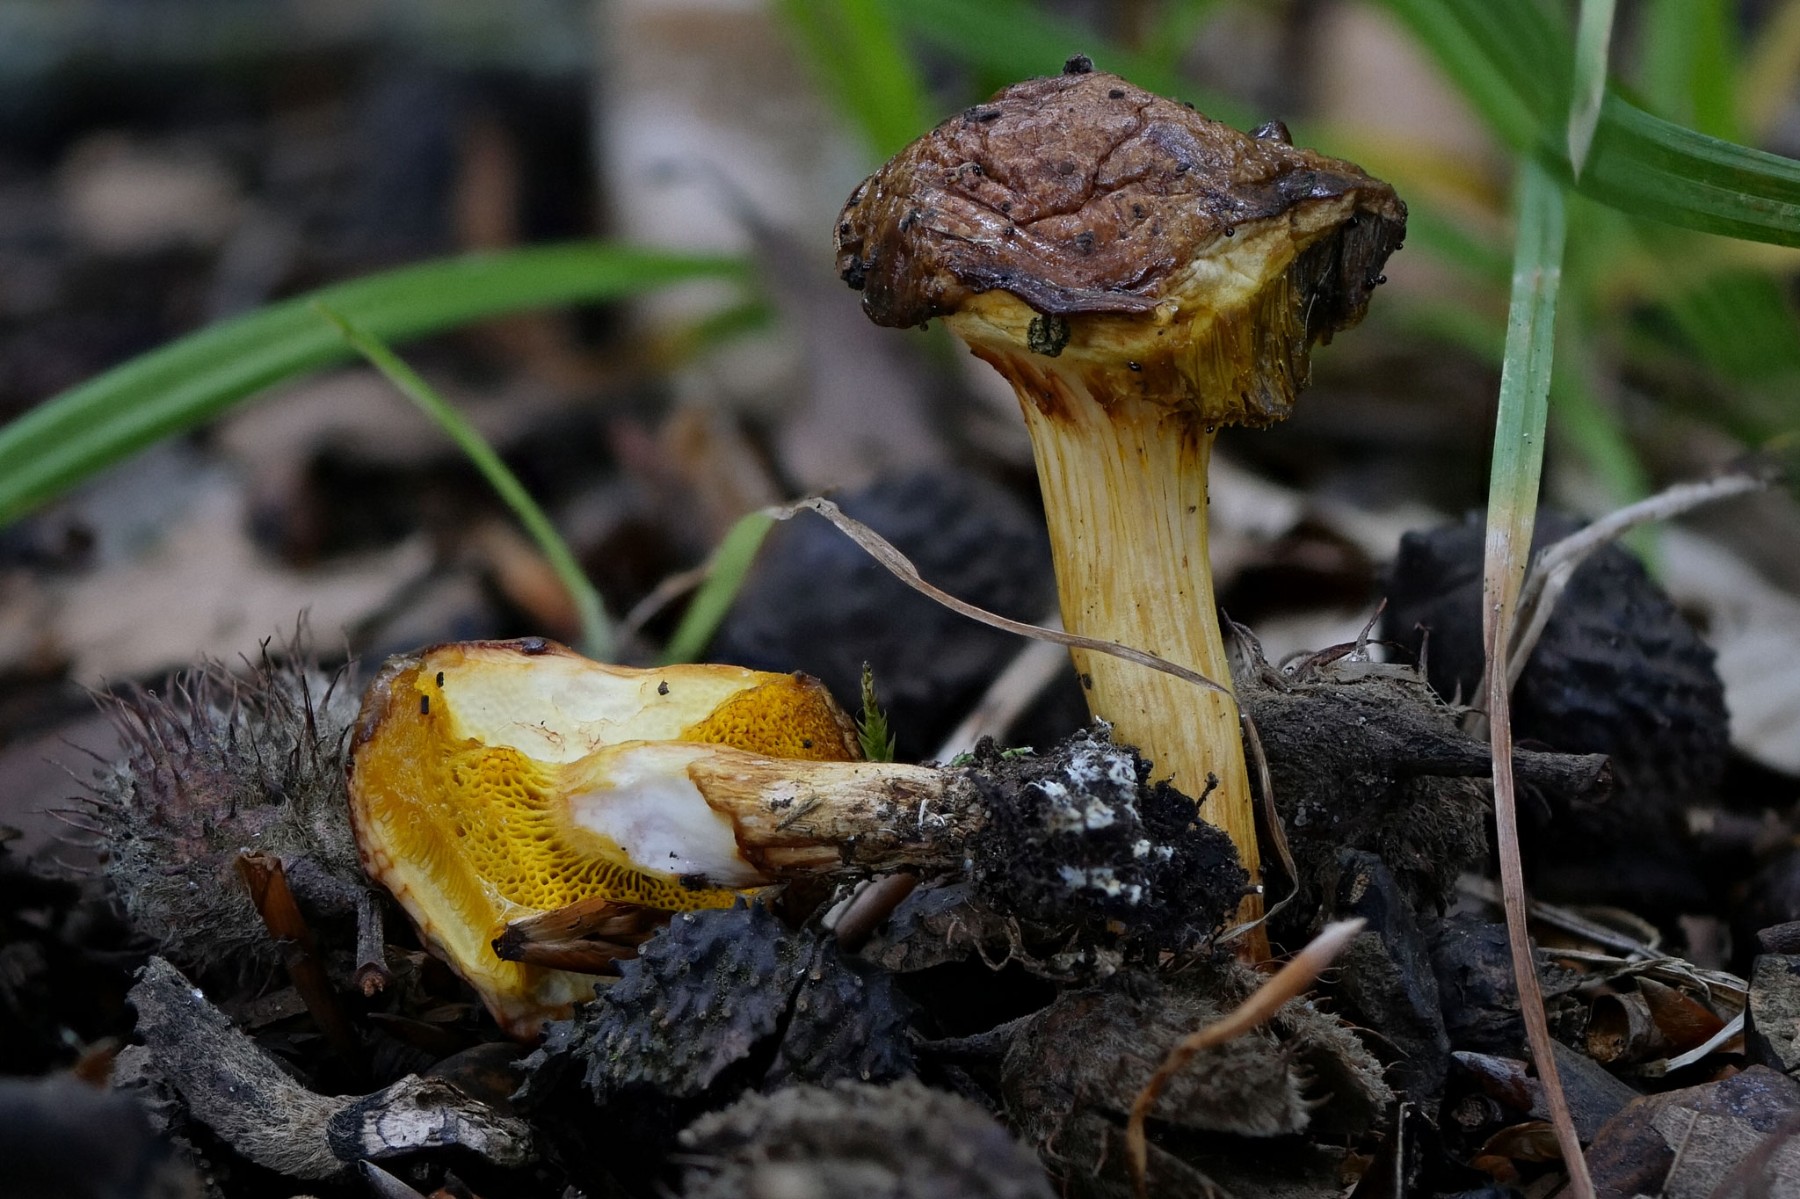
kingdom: Fungi
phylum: Basidiomycota
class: Agaricomycetes
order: Boletales
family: Boletaceae
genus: Aureoboletus
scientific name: Aureoboletus gentilis
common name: guldrørhat
